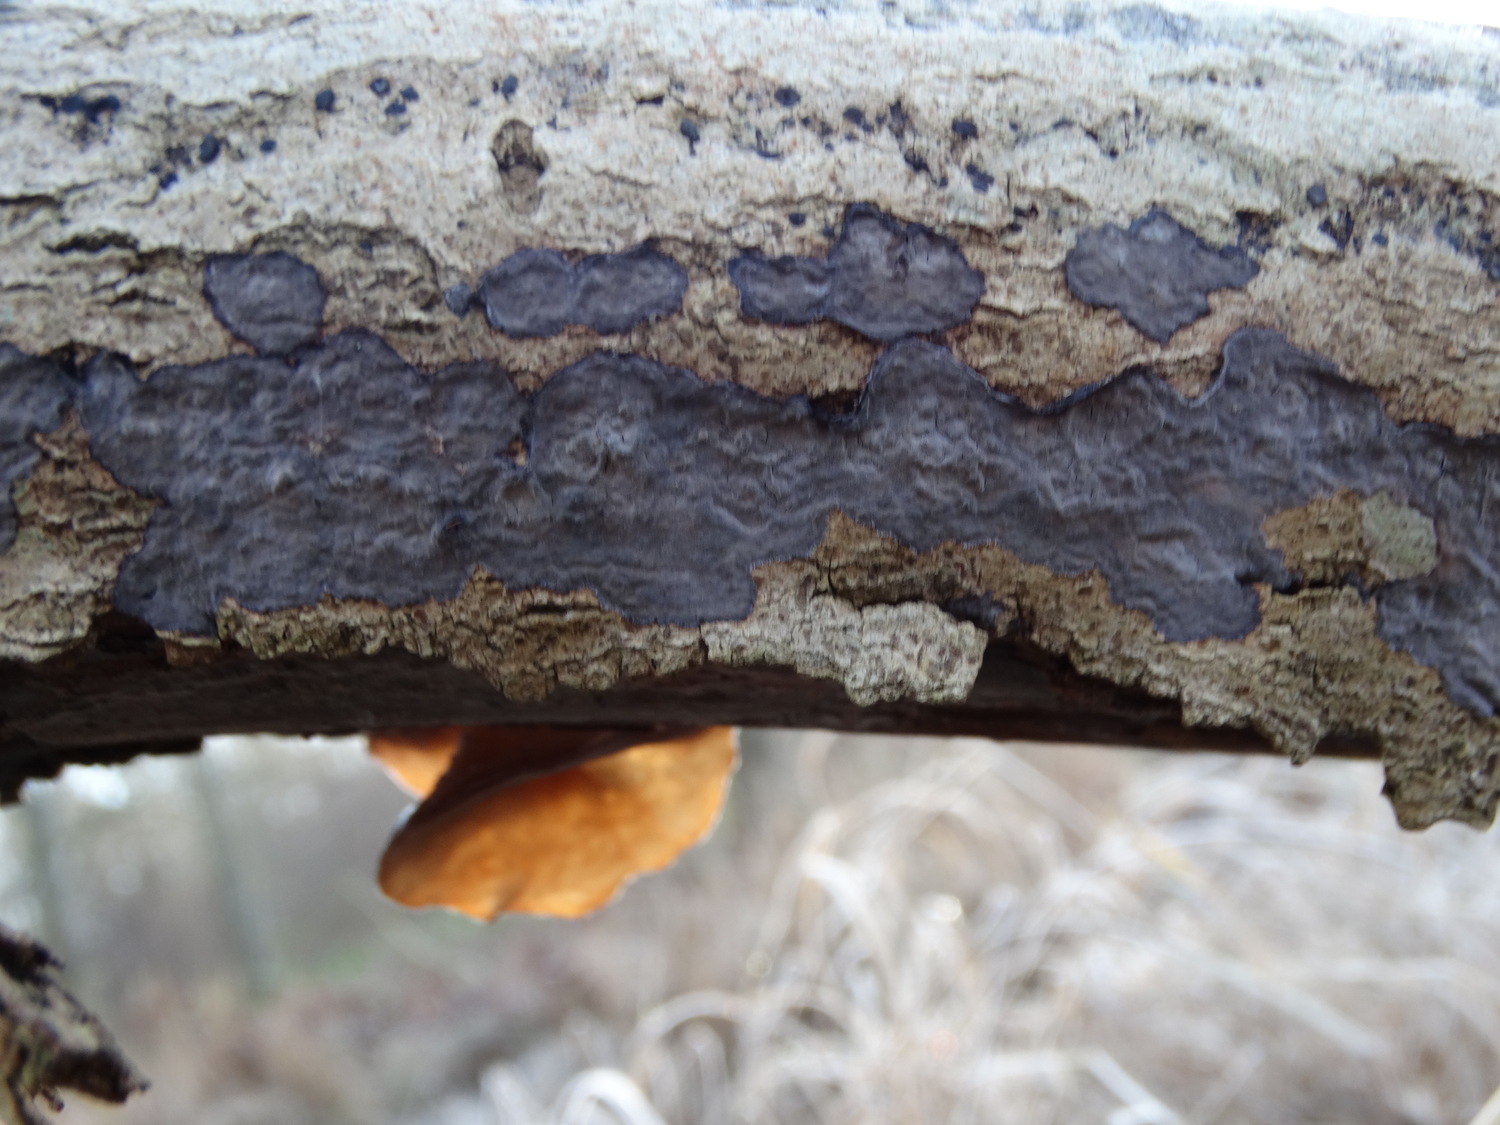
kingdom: Fungi
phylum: Basidiomycota
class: Agaricomycetes
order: Russulales
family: Peniophoraceae
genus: Peniophora
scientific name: Peniophora limitata
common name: mørkrandet voksskind
